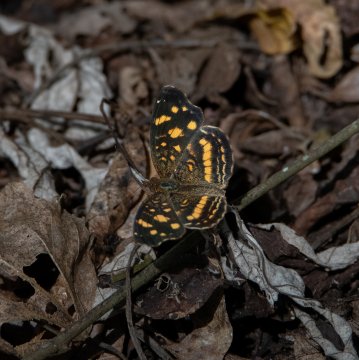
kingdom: Animalia
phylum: Arthropoda
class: Insecta
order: Lepidoptera
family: Nymphalidae
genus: Anthanassa
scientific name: Anthanassa tulcis
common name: Pale-banded Crescent
